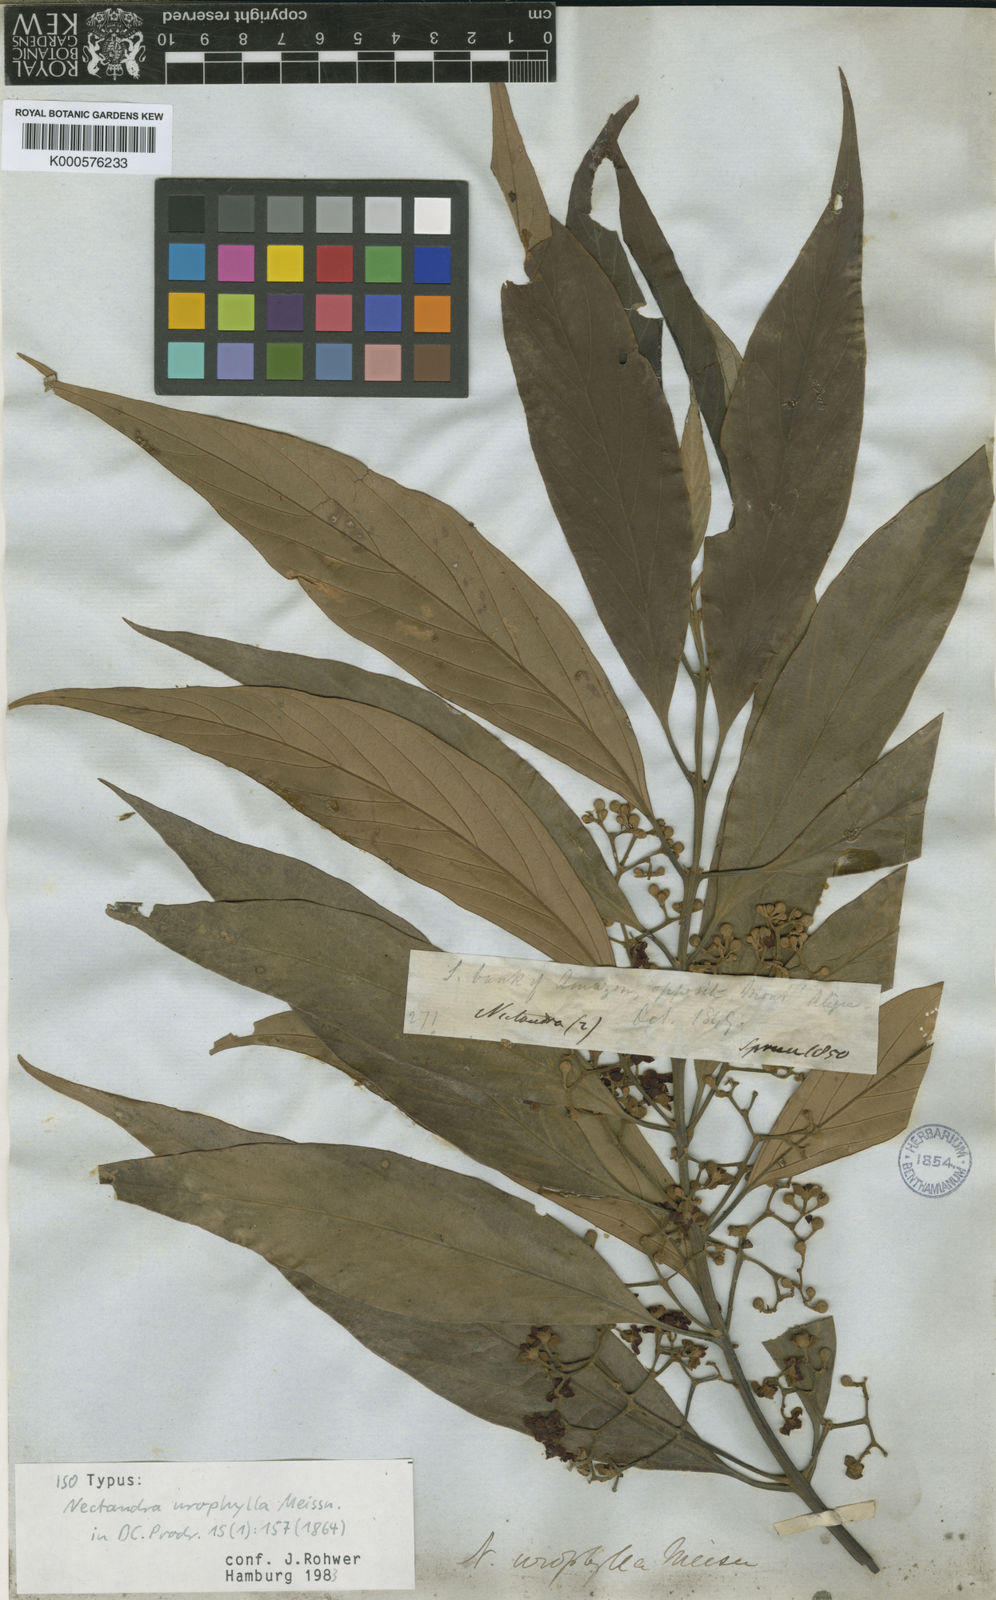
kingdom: Plantae
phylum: Tracheophyta
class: Magnoliopsida
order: Laurales
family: Lauraceae
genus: Nectandra
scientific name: Nectandra amazonum
